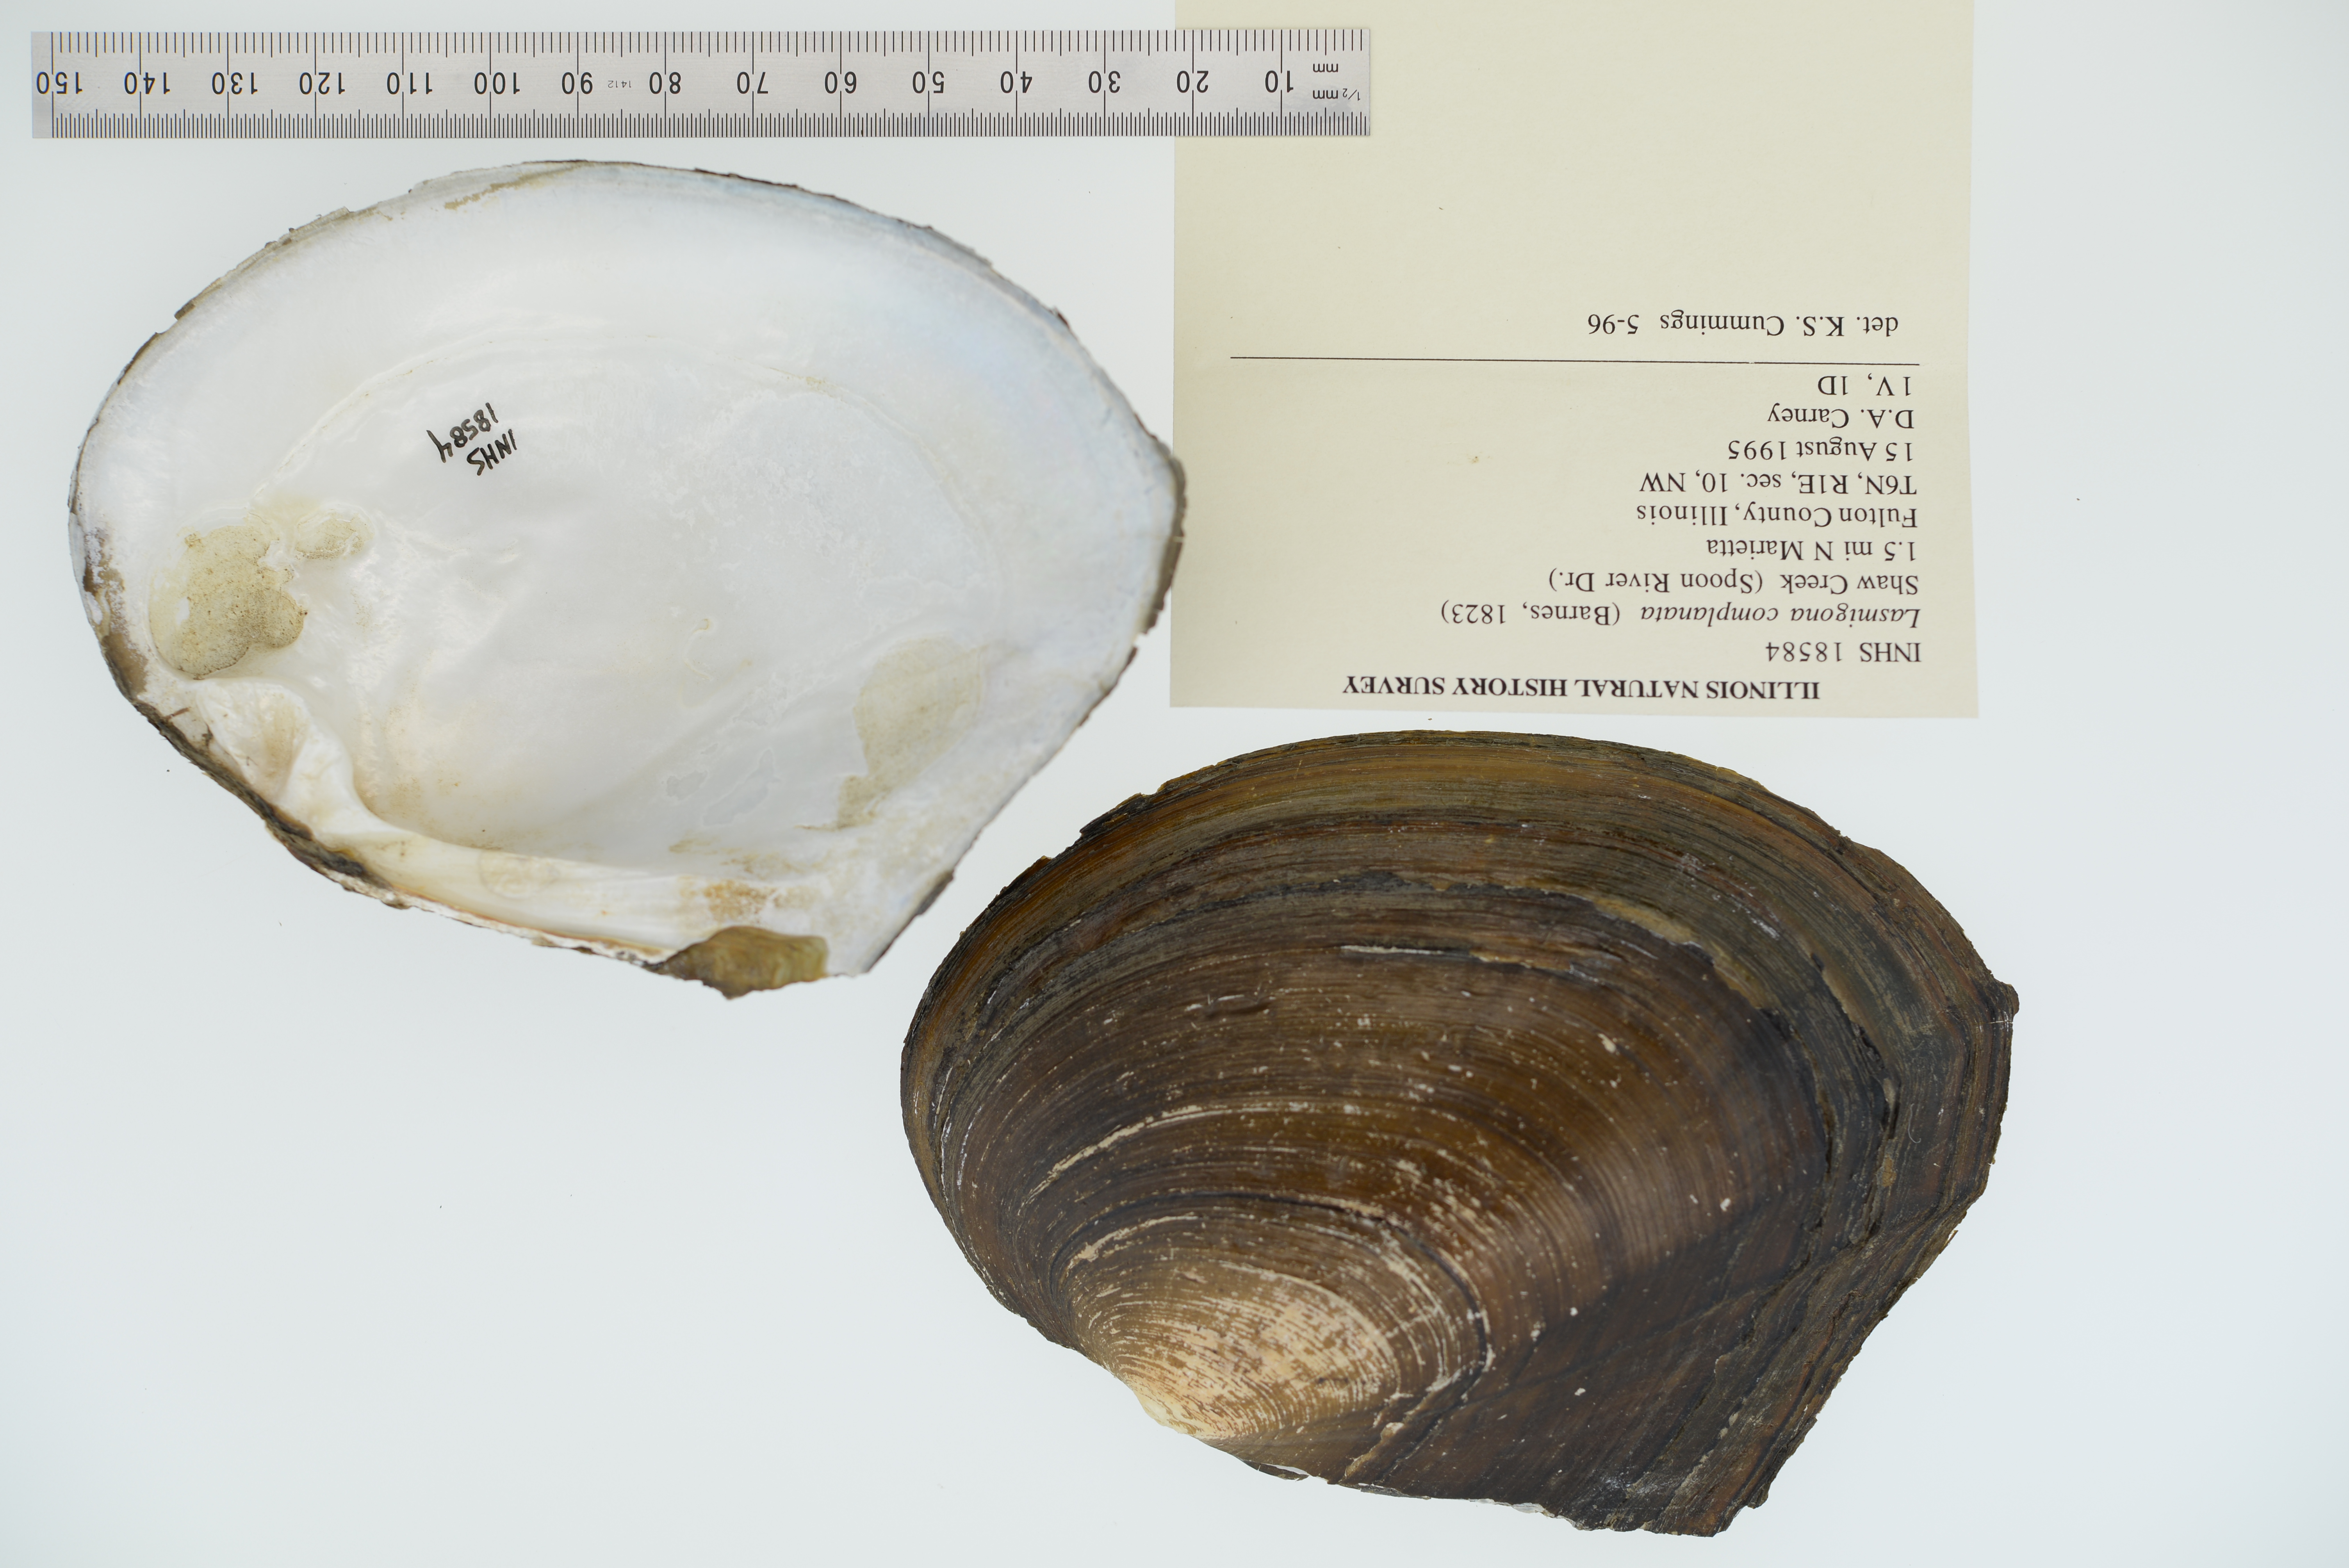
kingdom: Animalia
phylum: Mollusca
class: Bivalvia
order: Unionida
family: Unionidae
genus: Lasmigona
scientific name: Lasmigona complanata
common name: White heelsplitter
